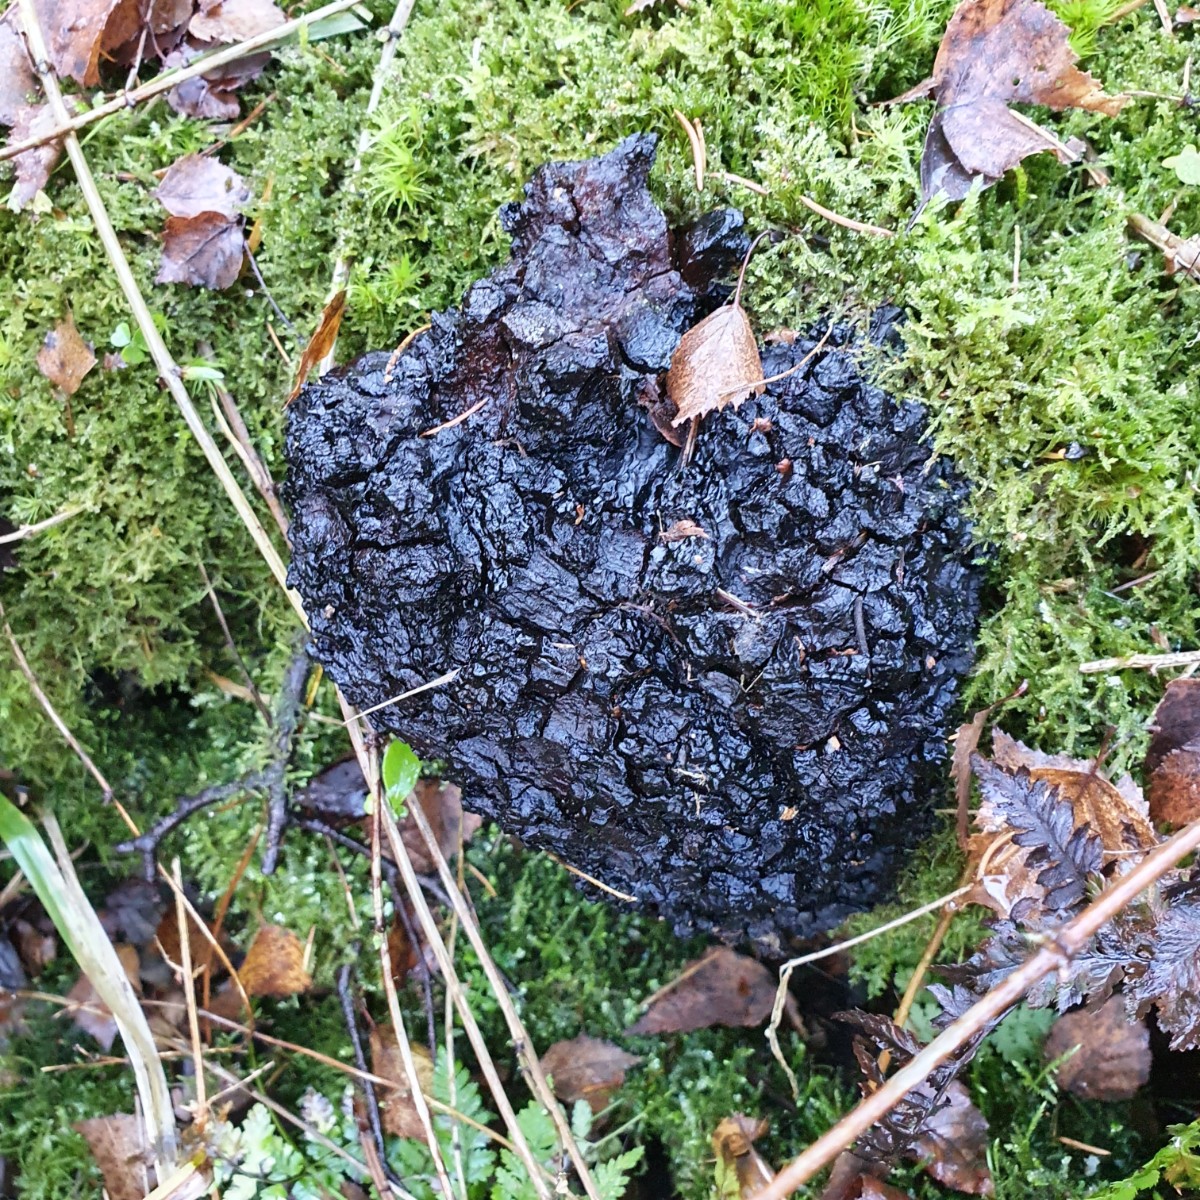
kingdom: Fungi
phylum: Basidiomycota
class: Agaricomycetes
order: Hymenochaetales
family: Hymenochaetaceae
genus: Inonotus
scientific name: Inonotus obliquus
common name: birke-spejlporesvamp
